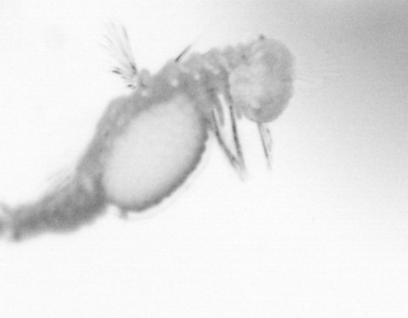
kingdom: Animalia
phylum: Annelida
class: Polychaeta
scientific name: Polychaeta
